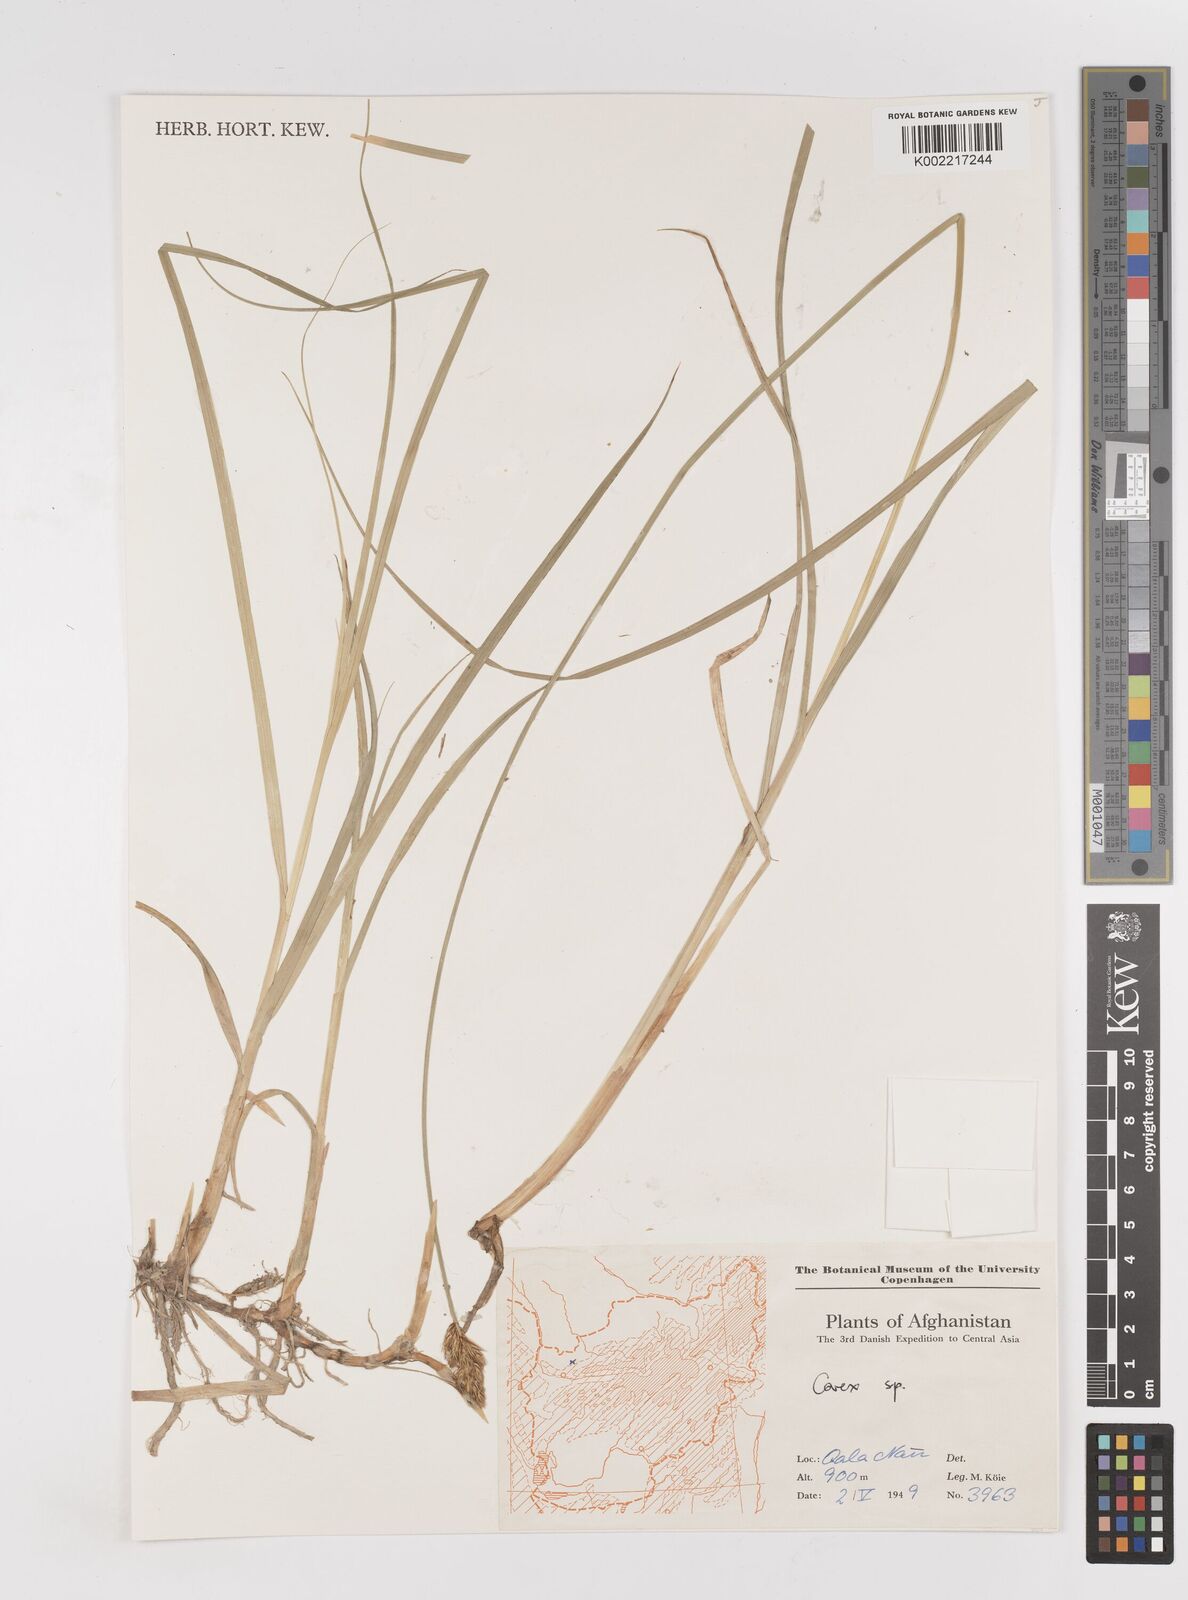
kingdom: Plantae
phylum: Tracheophyta
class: Liliopsida
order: Poales
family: Cyperaceae
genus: Carex
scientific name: Carex
